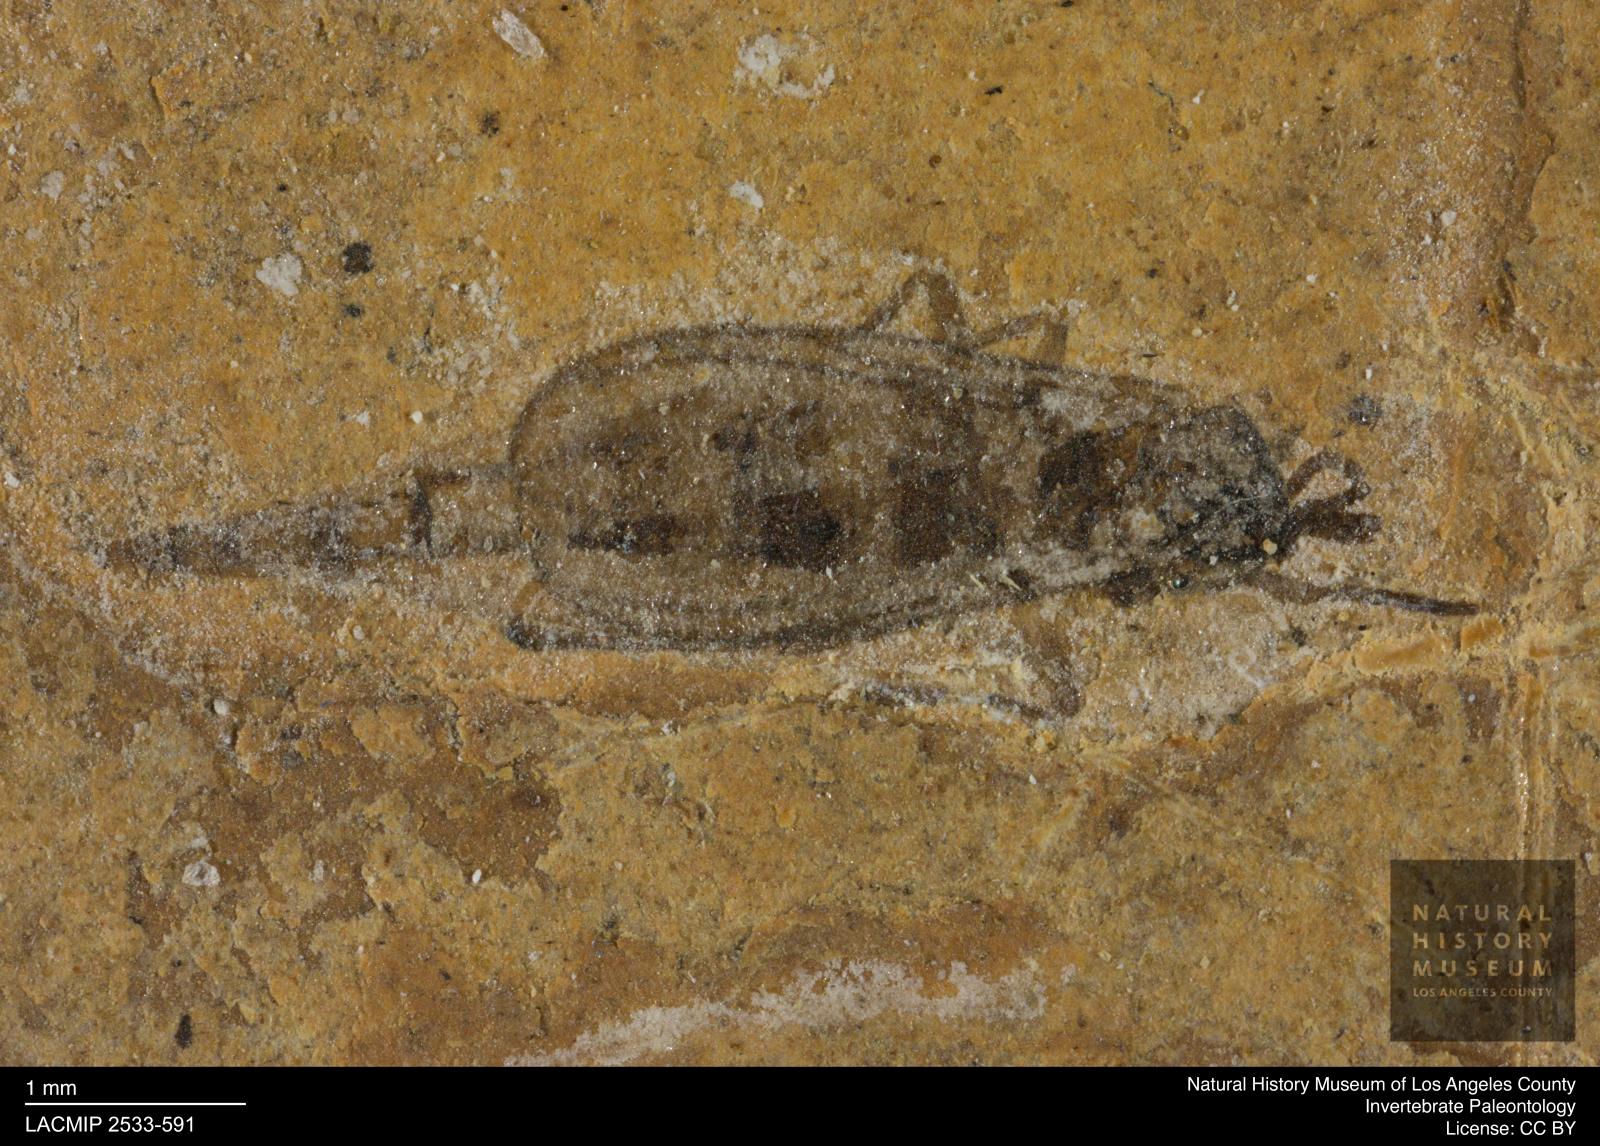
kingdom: Animalia
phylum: Arthropoda
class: Insecta
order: Diptera
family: Sciaridae
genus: Sciara
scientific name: Sciara longa
